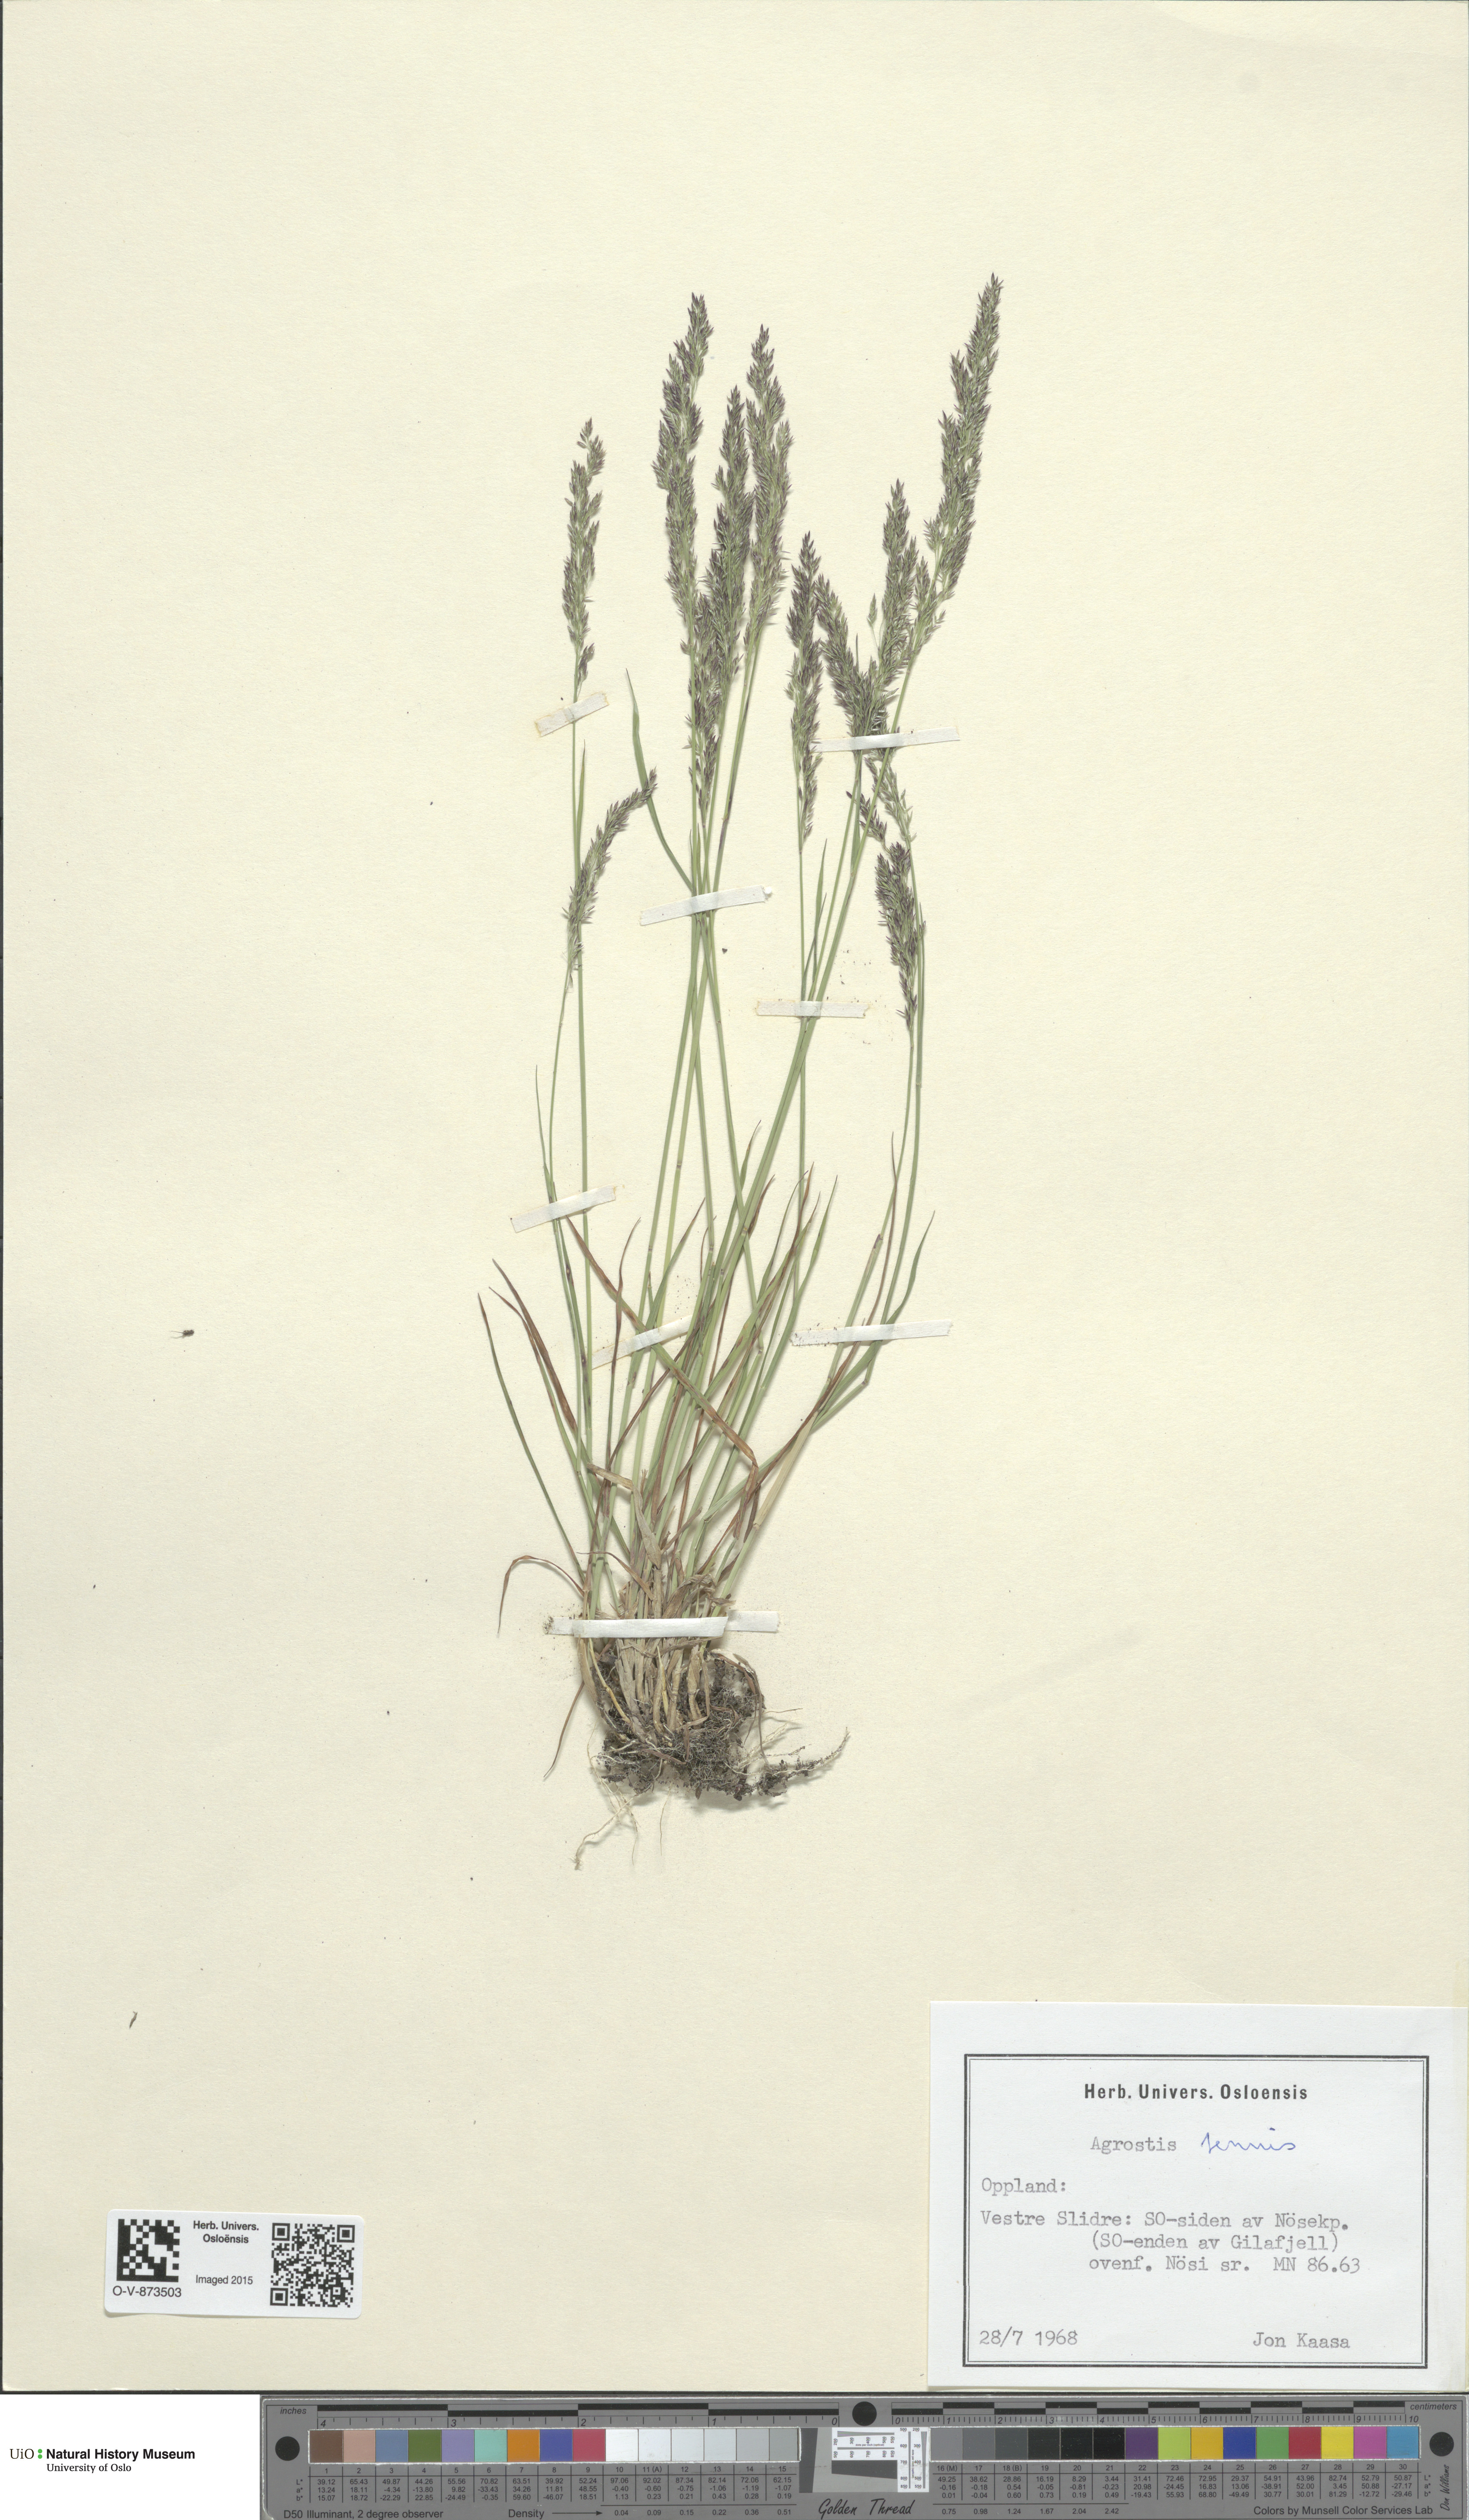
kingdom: Plantae
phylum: Tracheophyta
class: Liliopsida
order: Poales
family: Poaceae
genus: Agrostis
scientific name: Agrostis capillaris
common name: Colonial bentgrass
